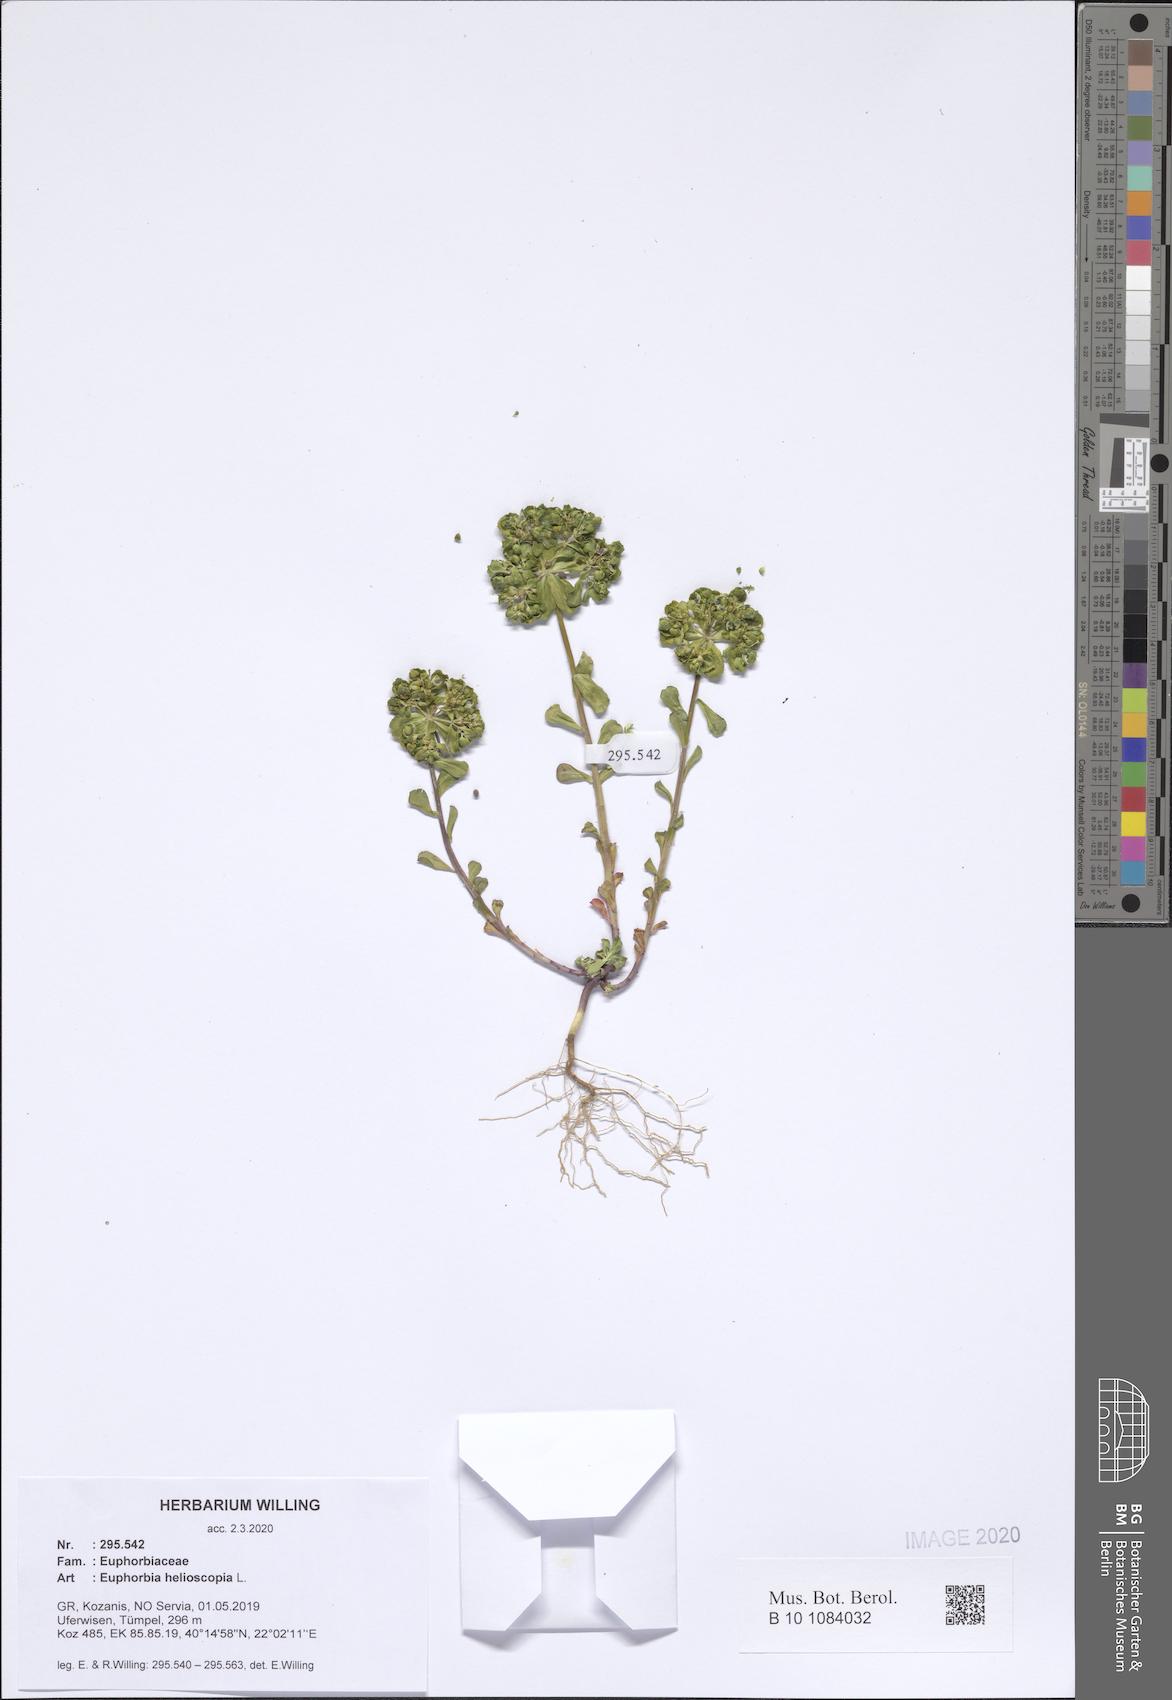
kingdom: Plantae
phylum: Tracheophyta
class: Magnoliopsida
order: Malpighiales
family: Euphorbiaceae
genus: Euphorbia
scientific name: Euphorbia helioscopia
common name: Sun spurge
